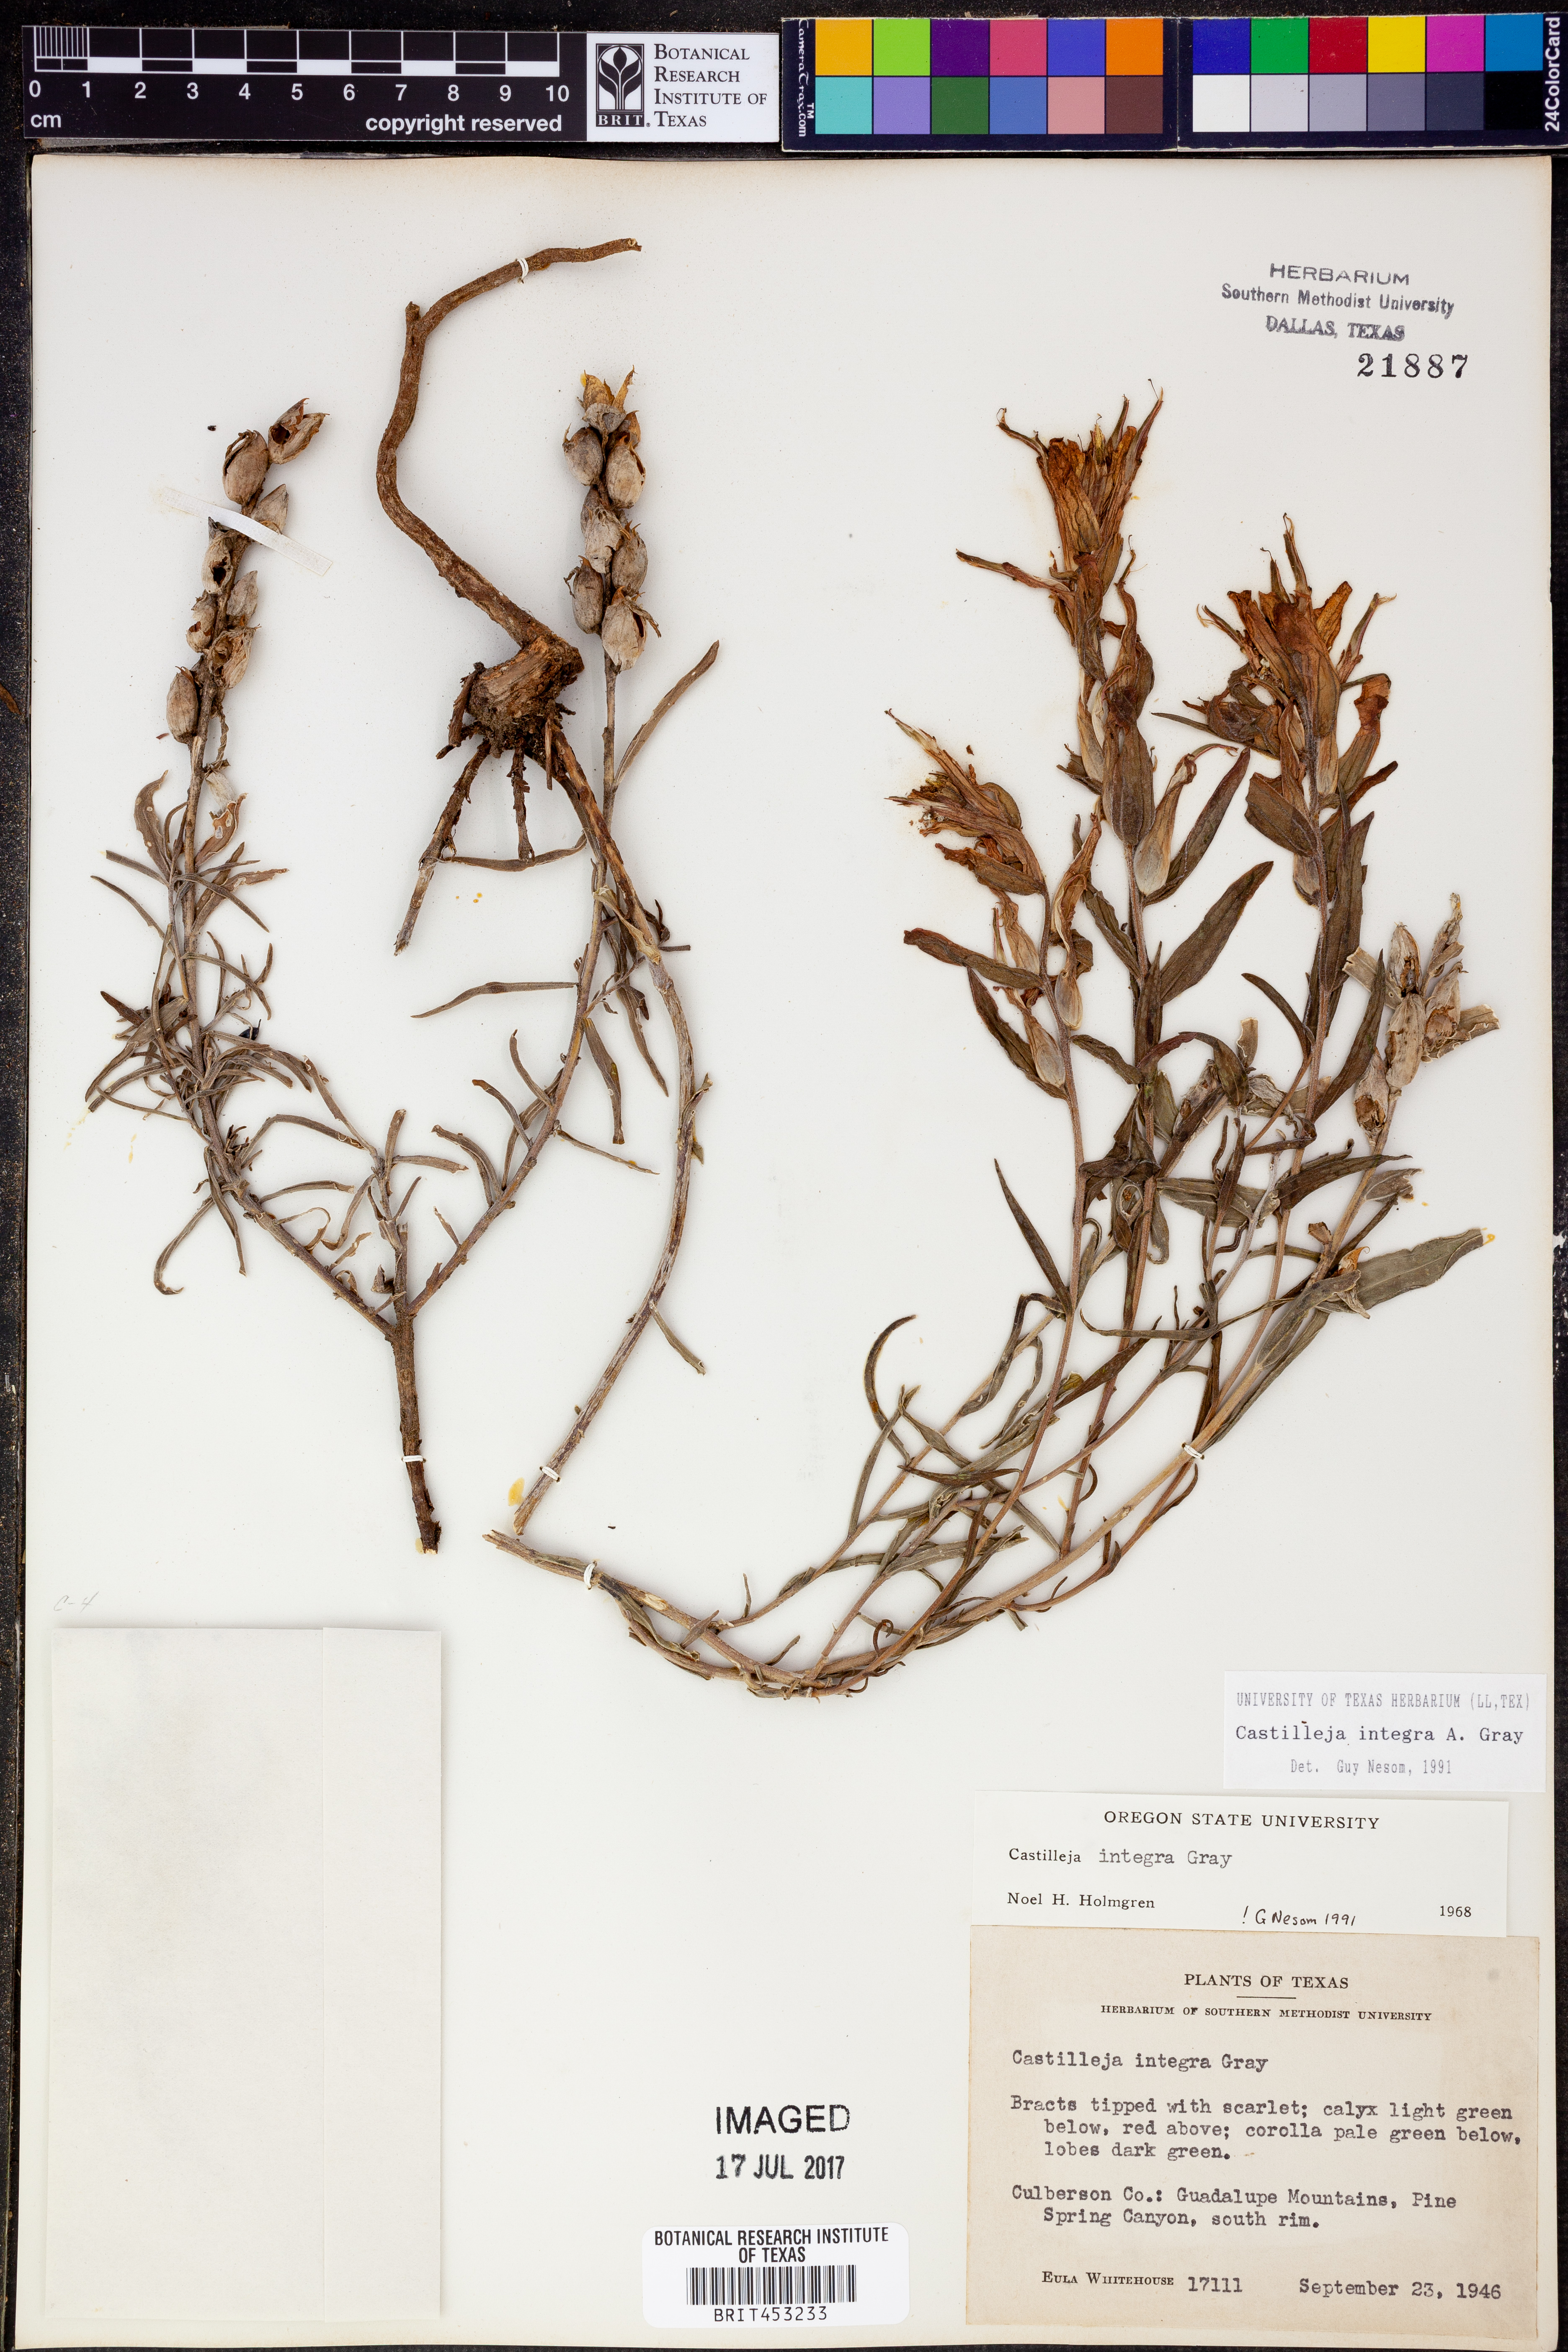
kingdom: Plantae
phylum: Tracheophyta
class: Magnoliopsida
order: Lamiales
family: Orobanchaceae
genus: Castilleja
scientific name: Castilleja integra
